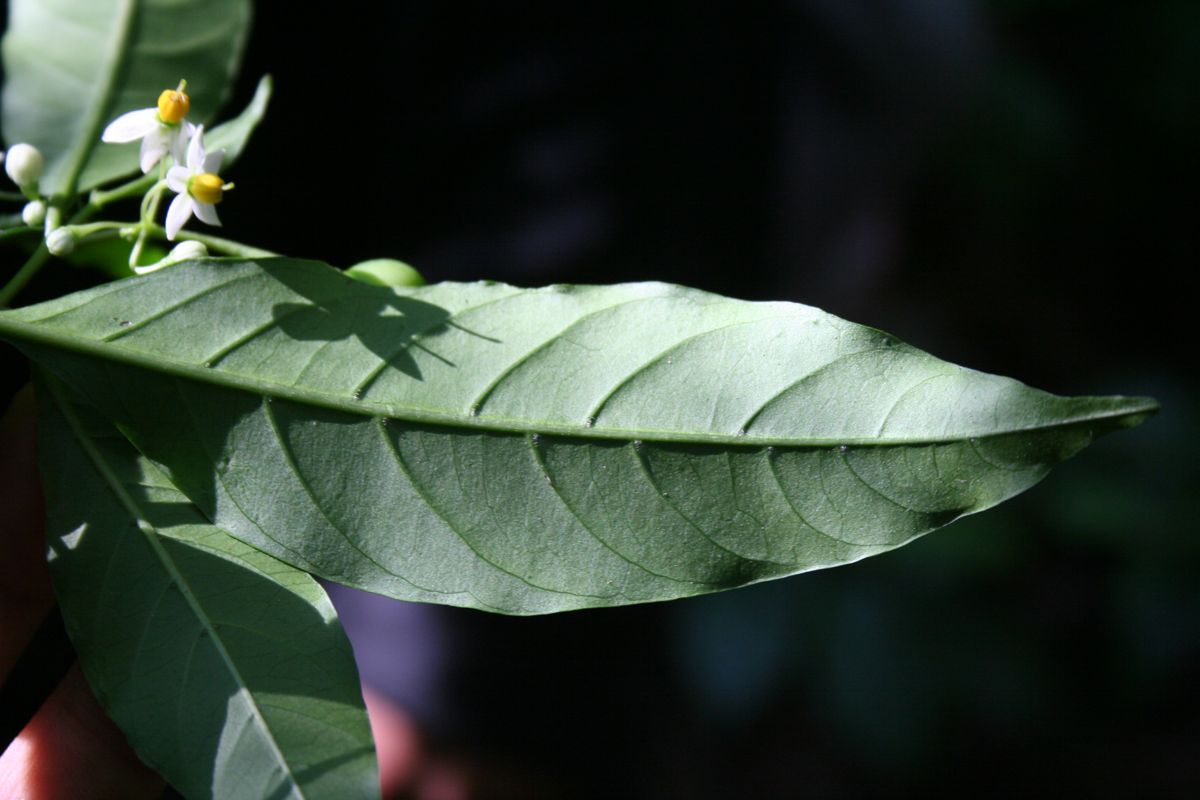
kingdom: Plantae
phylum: Tracheophyta
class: Magnoliopsida
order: Solanales
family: Solanaceae
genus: Solanum
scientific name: Solanum aphyodendron
